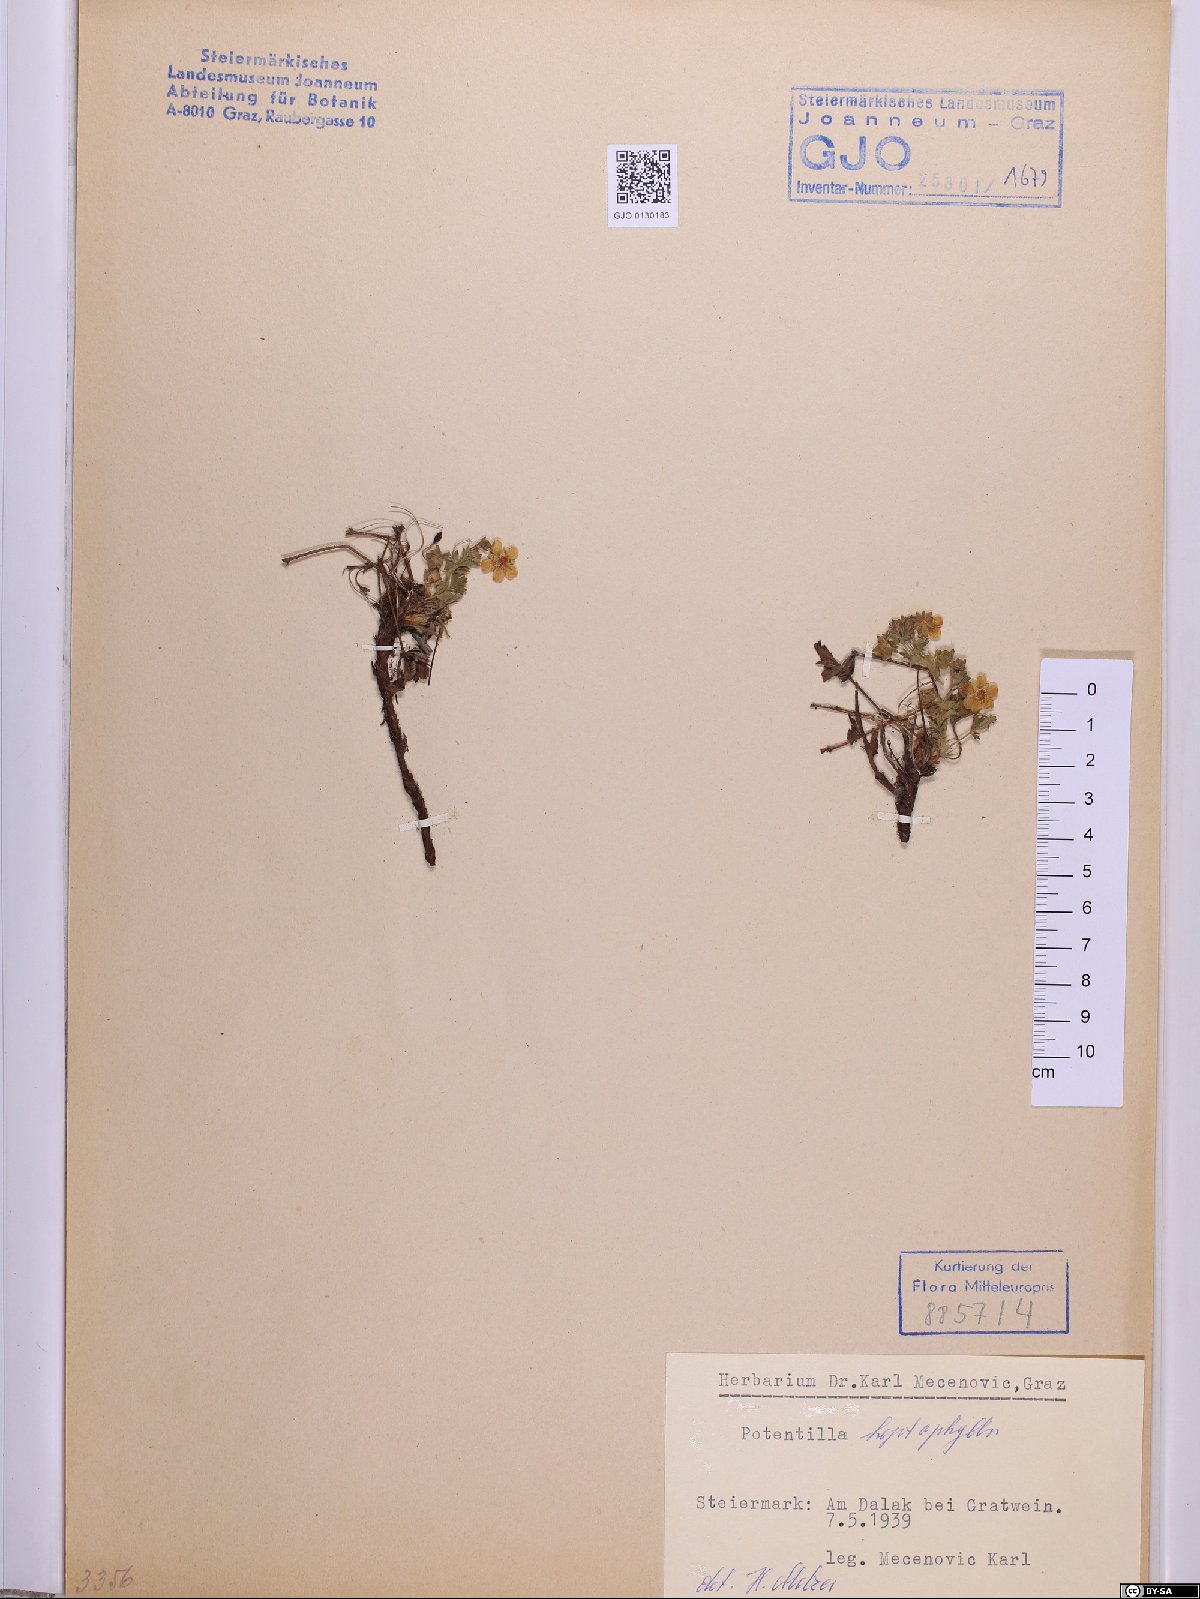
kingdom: Plantae
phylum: Tracheophyta
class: Magnoliopsida
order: Rosales
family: Rosaceae
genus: Potentilla
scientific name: Potentilla heptaphylla
